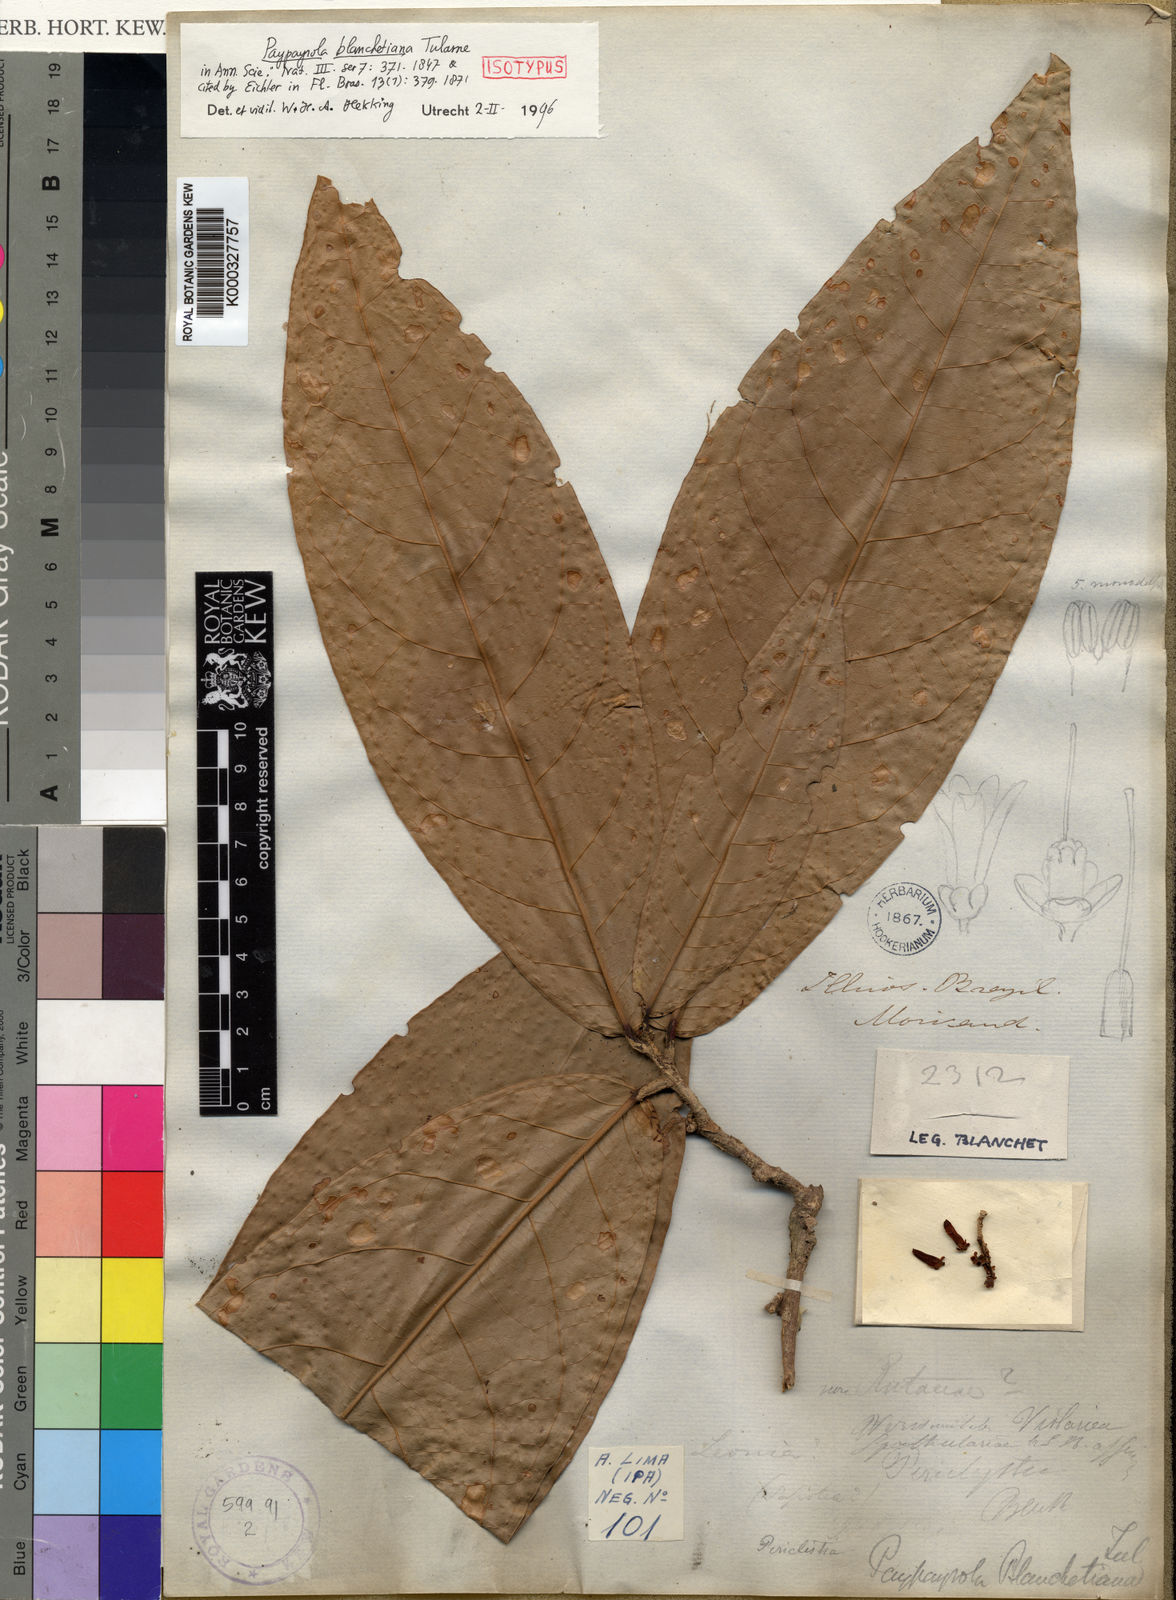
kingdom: Plantae
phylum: Tracheophyta
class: Magnoliopsida
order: Malpighiales
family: Violaceae
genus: Paypayrola
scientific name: Paypayrola blanchetiana
